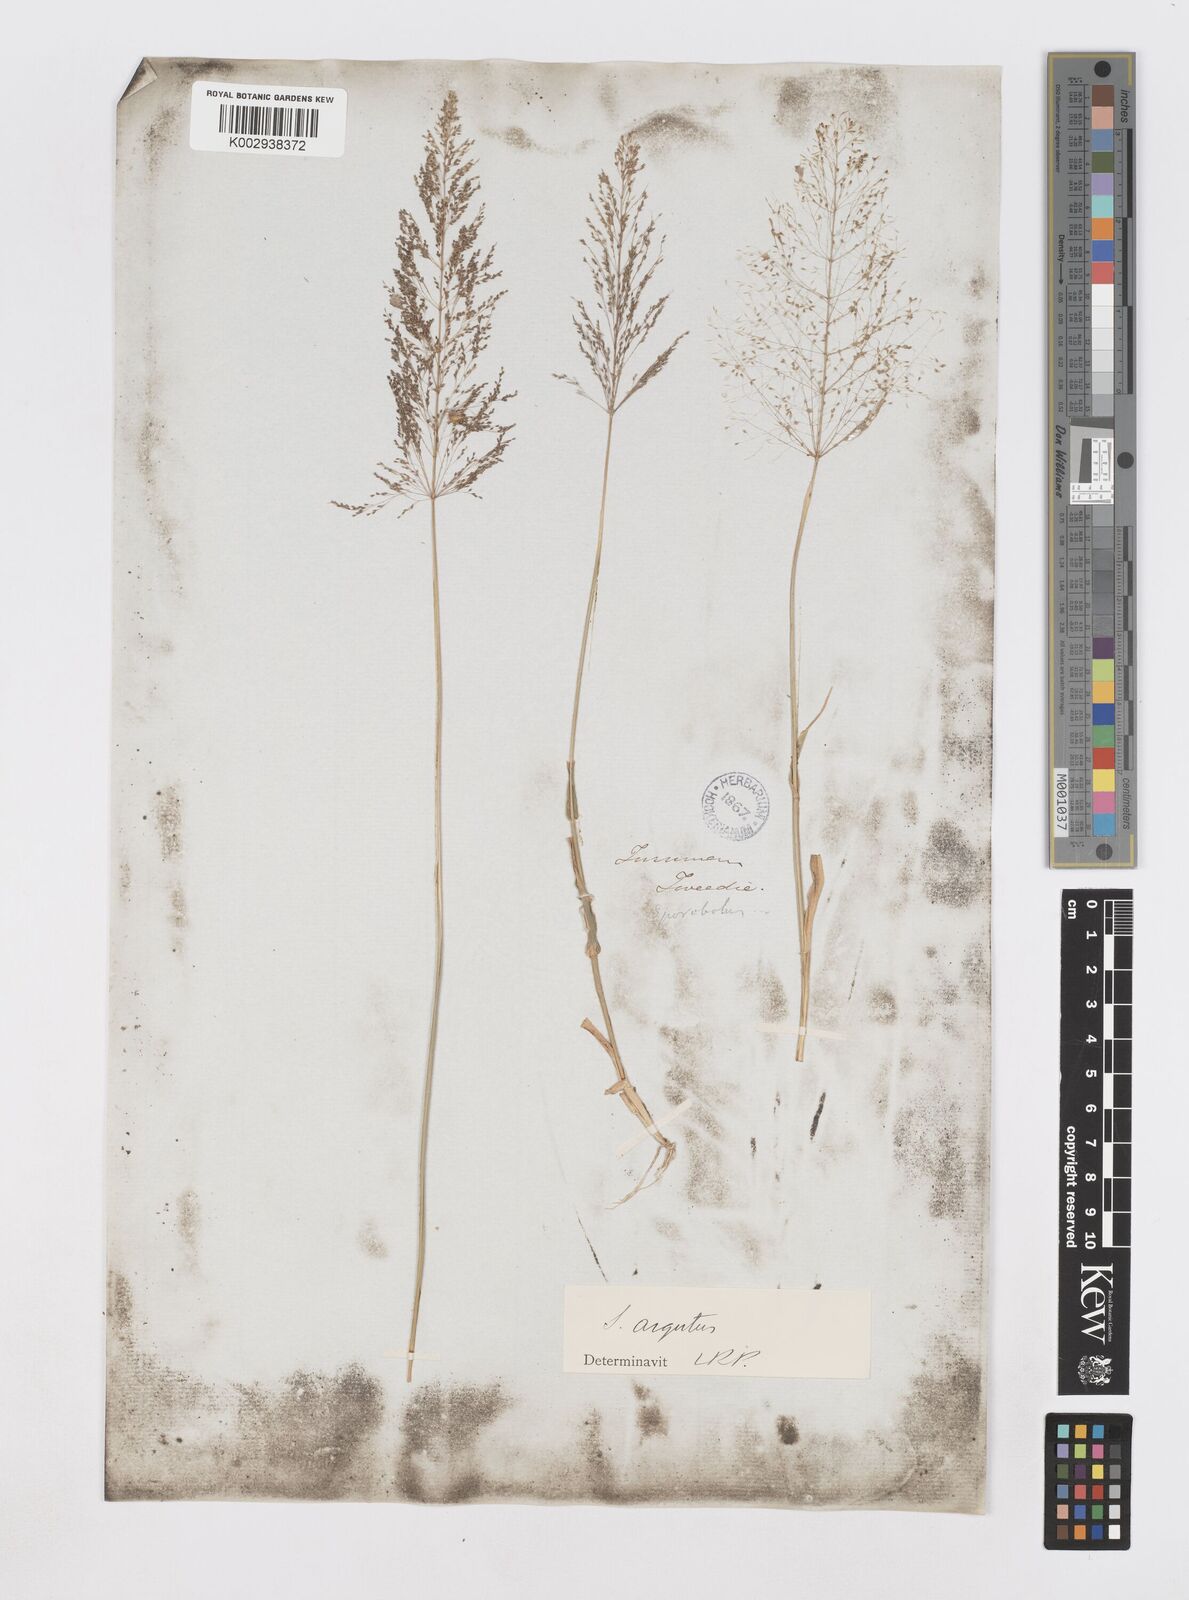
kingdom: Plantae
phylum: Tracheophyta
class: Liliopsida
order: Poales
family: Poaceae
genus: Sporobolus
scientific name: Sporobolus pyramidatus
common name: Whorled dropseed
